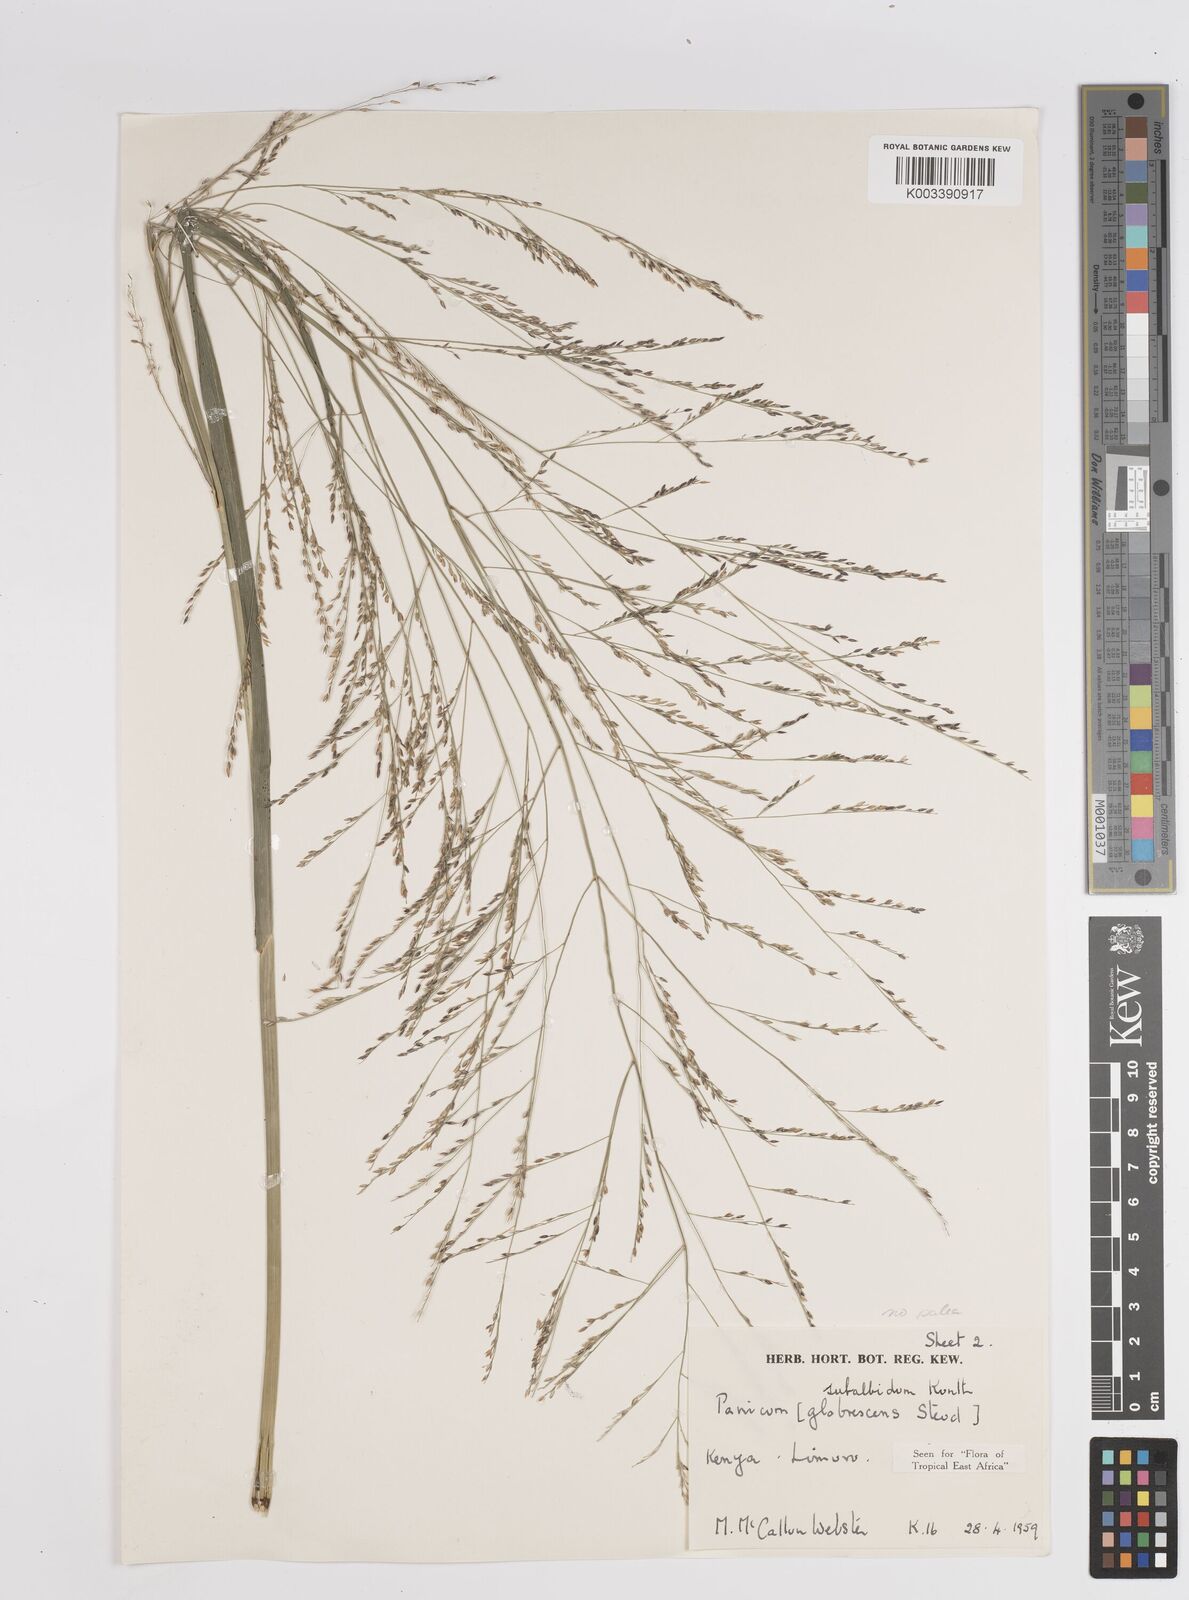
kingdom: Plantae
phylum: Tracheophyta
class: Liliopsida
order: Poales
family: Poaceae
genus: Panicum
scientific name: Panicum subalbidum
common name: Elbow buffalo grass
